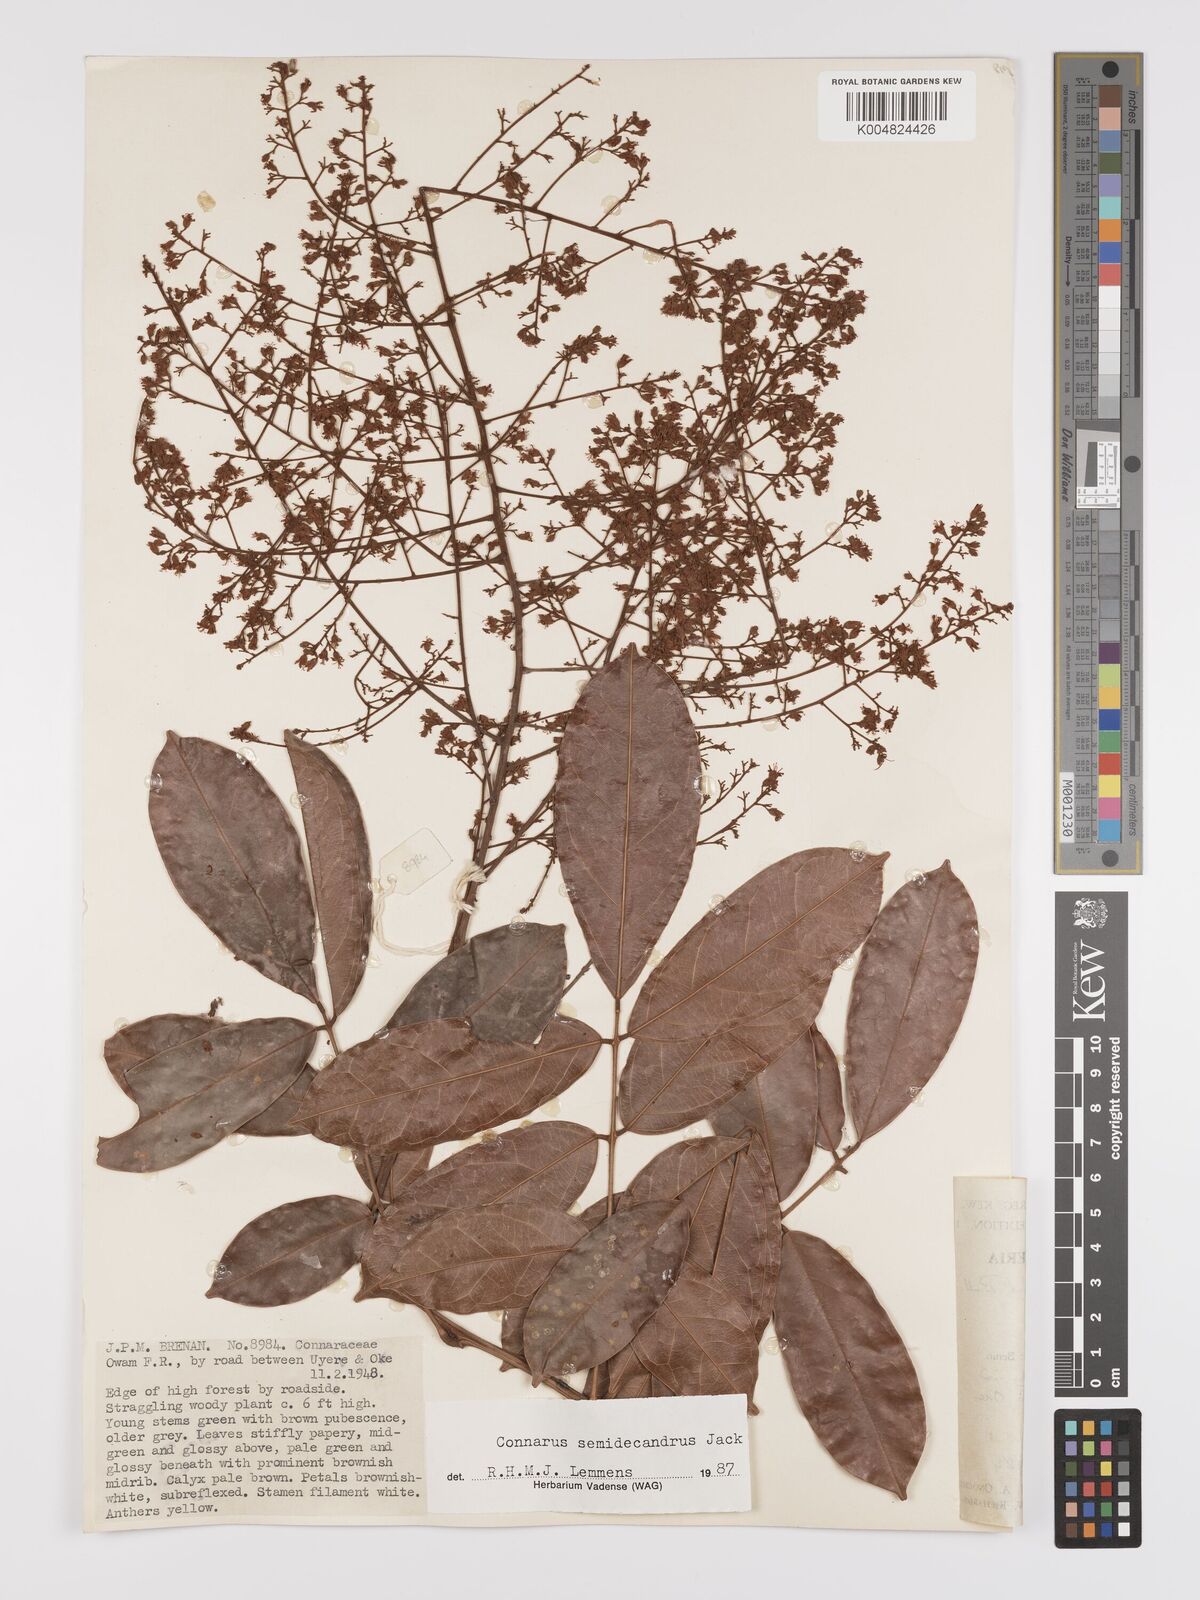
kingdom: Plantae
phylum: Tracheophyta
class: Magnoliopsida
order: Oxalidales
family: Connaraceae
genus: Connarus
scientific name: Connarus griffonianus
